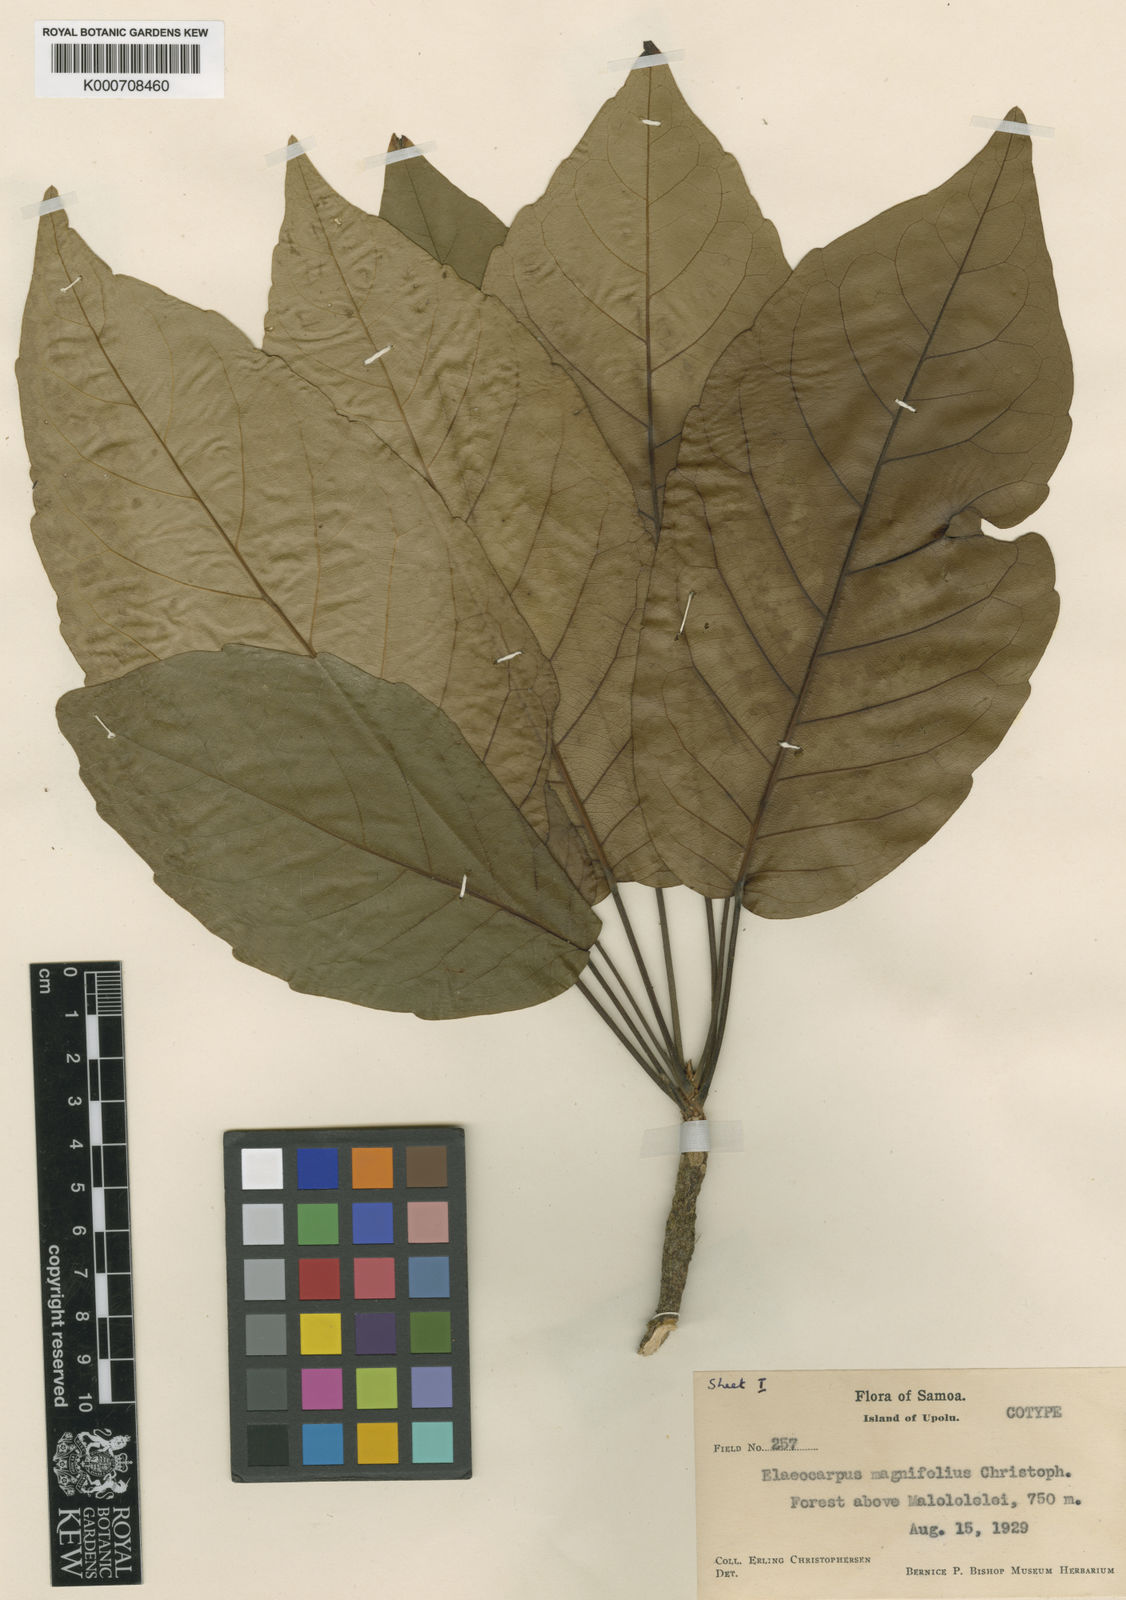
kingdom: Plantae
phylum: Tracheophyta
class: Magnoliopsida
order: Oxalidales
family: Elaeocarpaceae
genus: Elaeocarpus
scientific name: Elaeocarpus magnifolius
